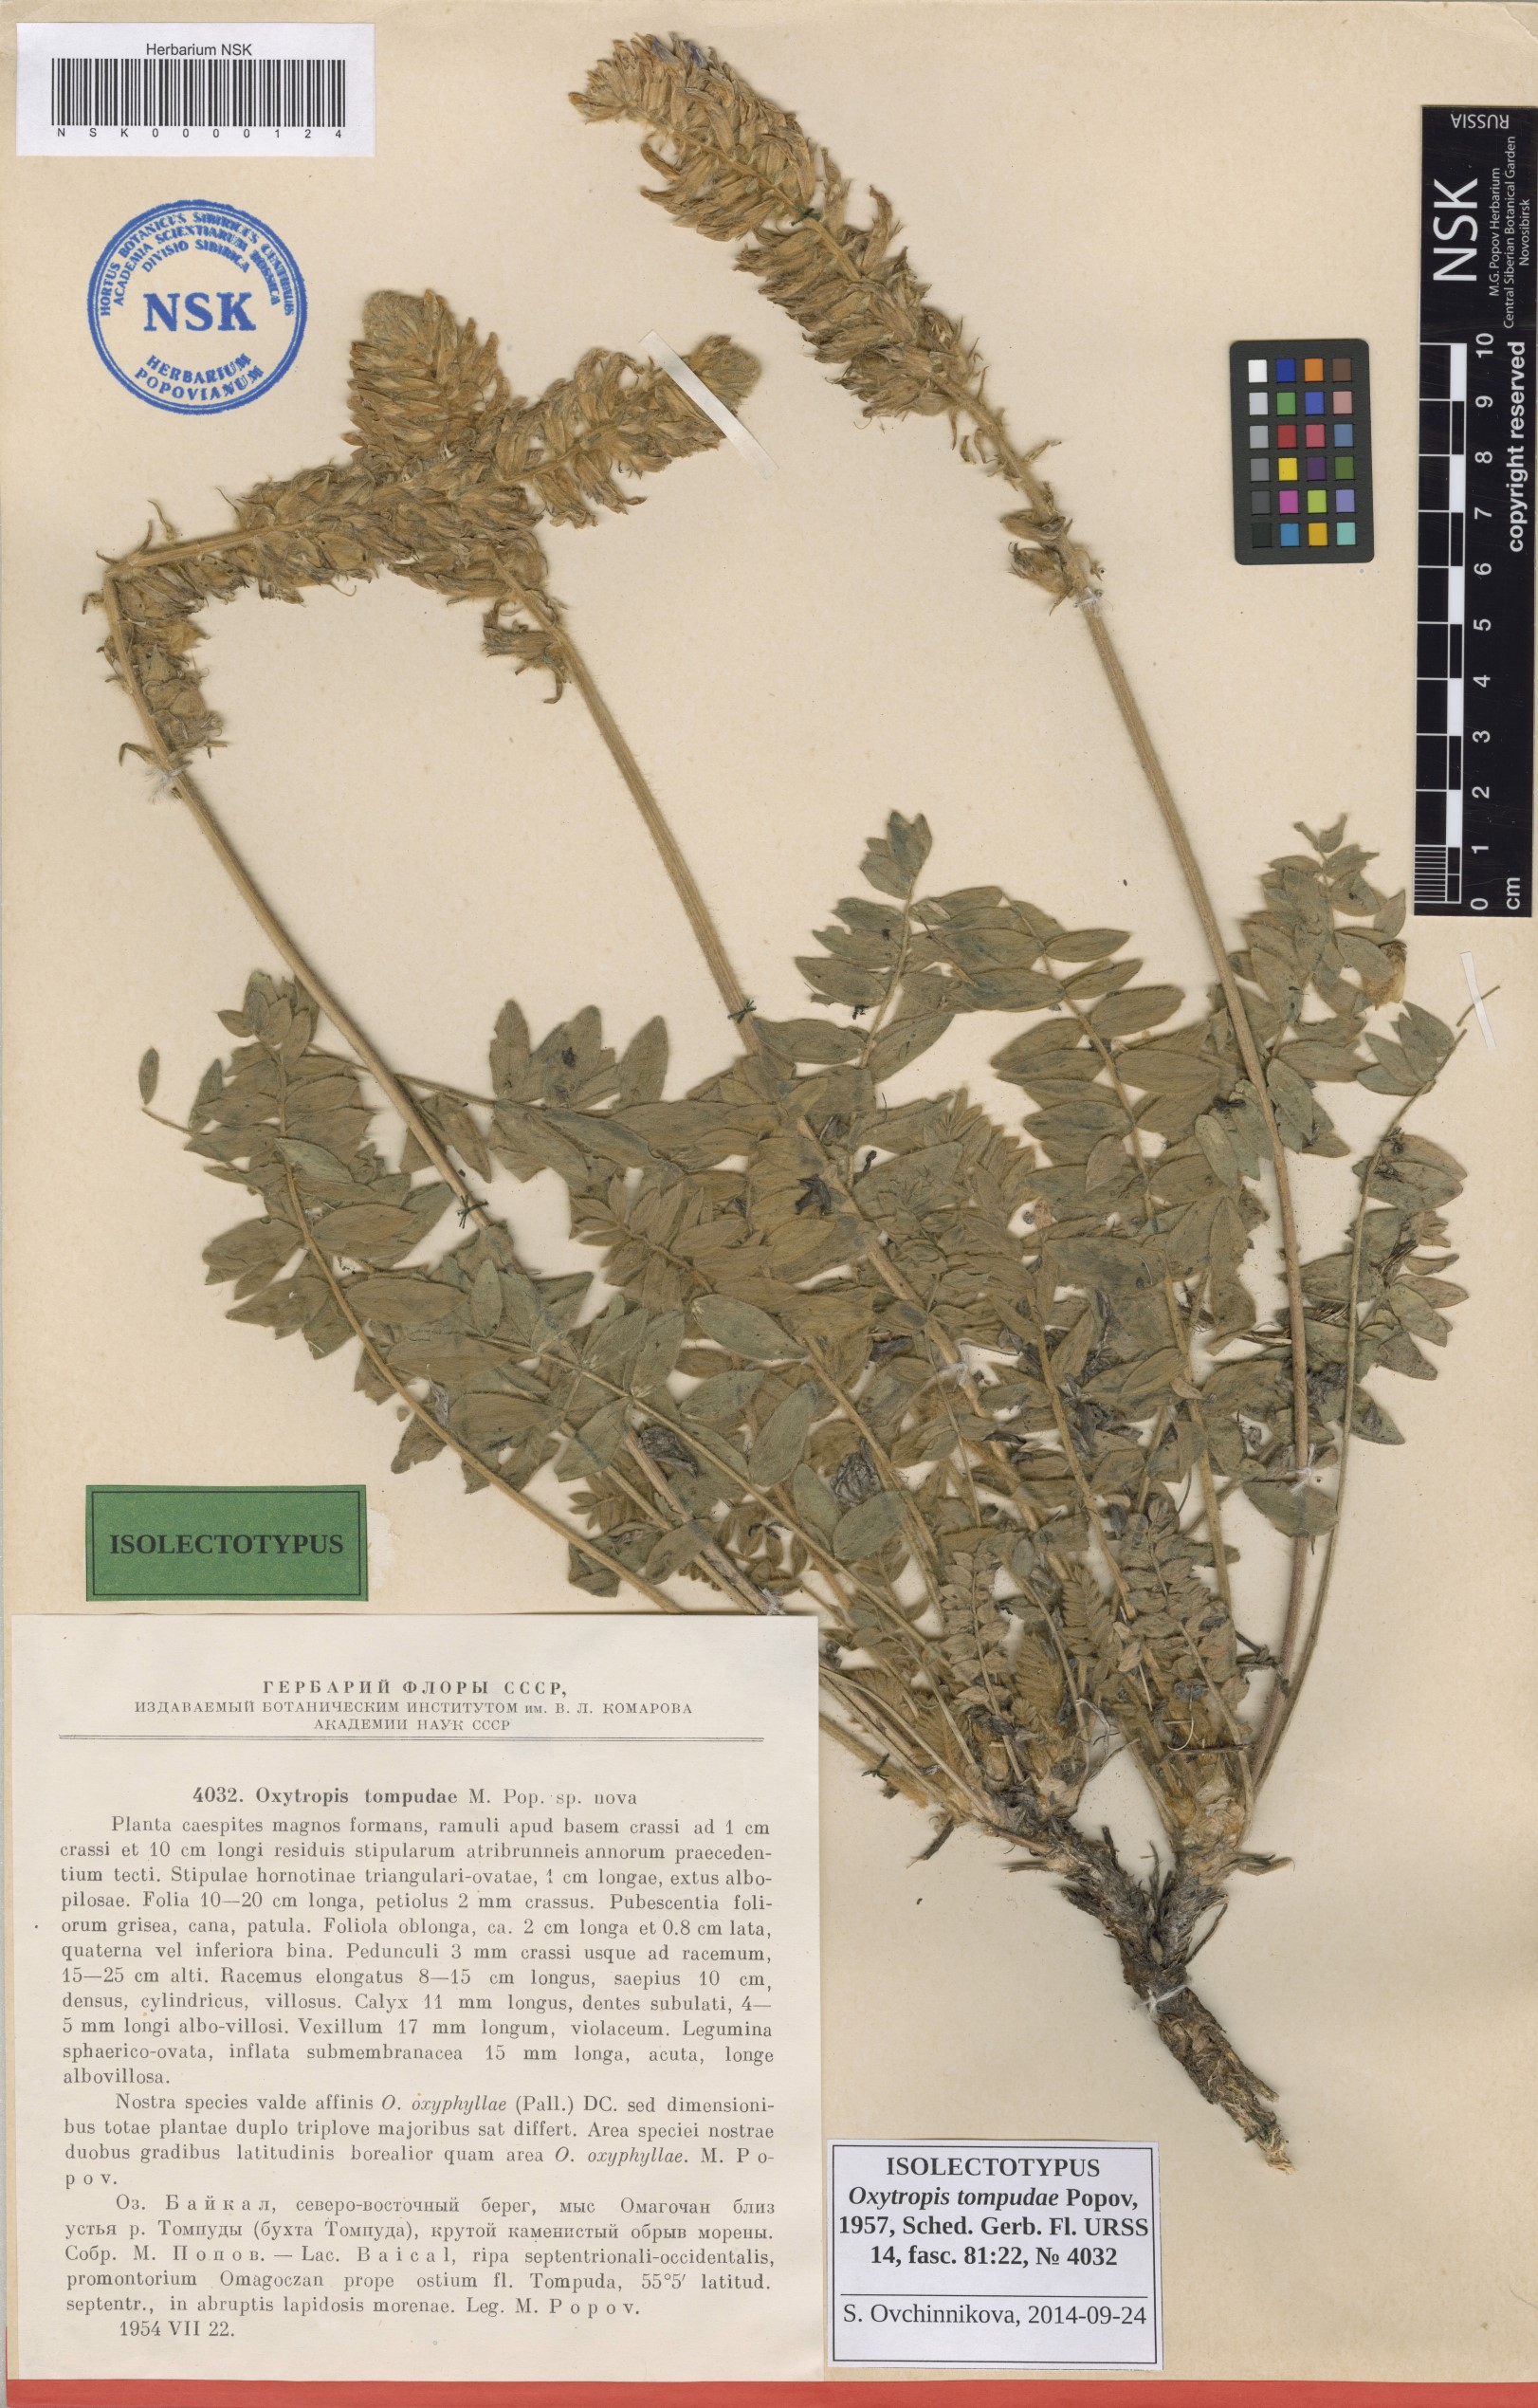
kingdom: Plantae
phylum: Tracheophyta
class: Magnoliopsida
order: Fabales
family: Fabaceae
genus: Oxytropis
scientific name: Oxytropis tompudae
